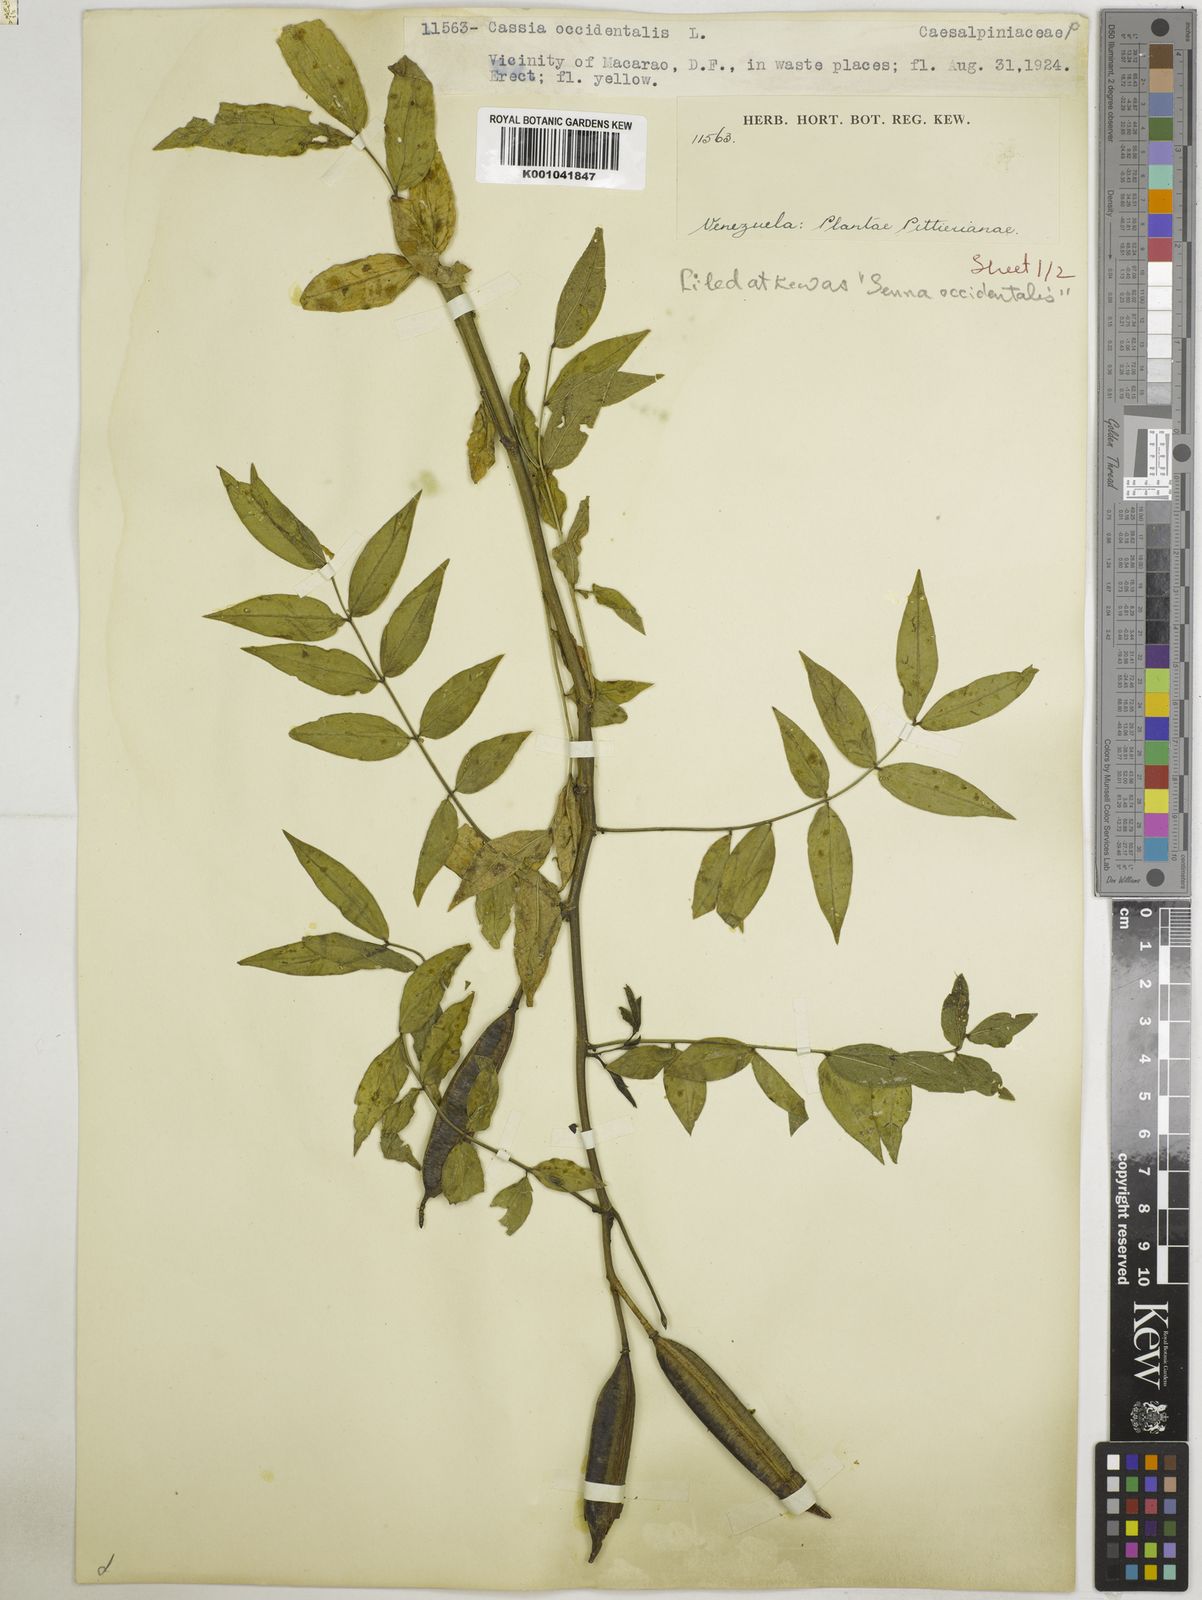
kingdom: Plantae
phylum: Tracheophyta
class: Magnoliopsida
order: Fabales
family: Fabaceae
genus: Senna
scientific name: Senna occidentalis
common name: Septicweed
